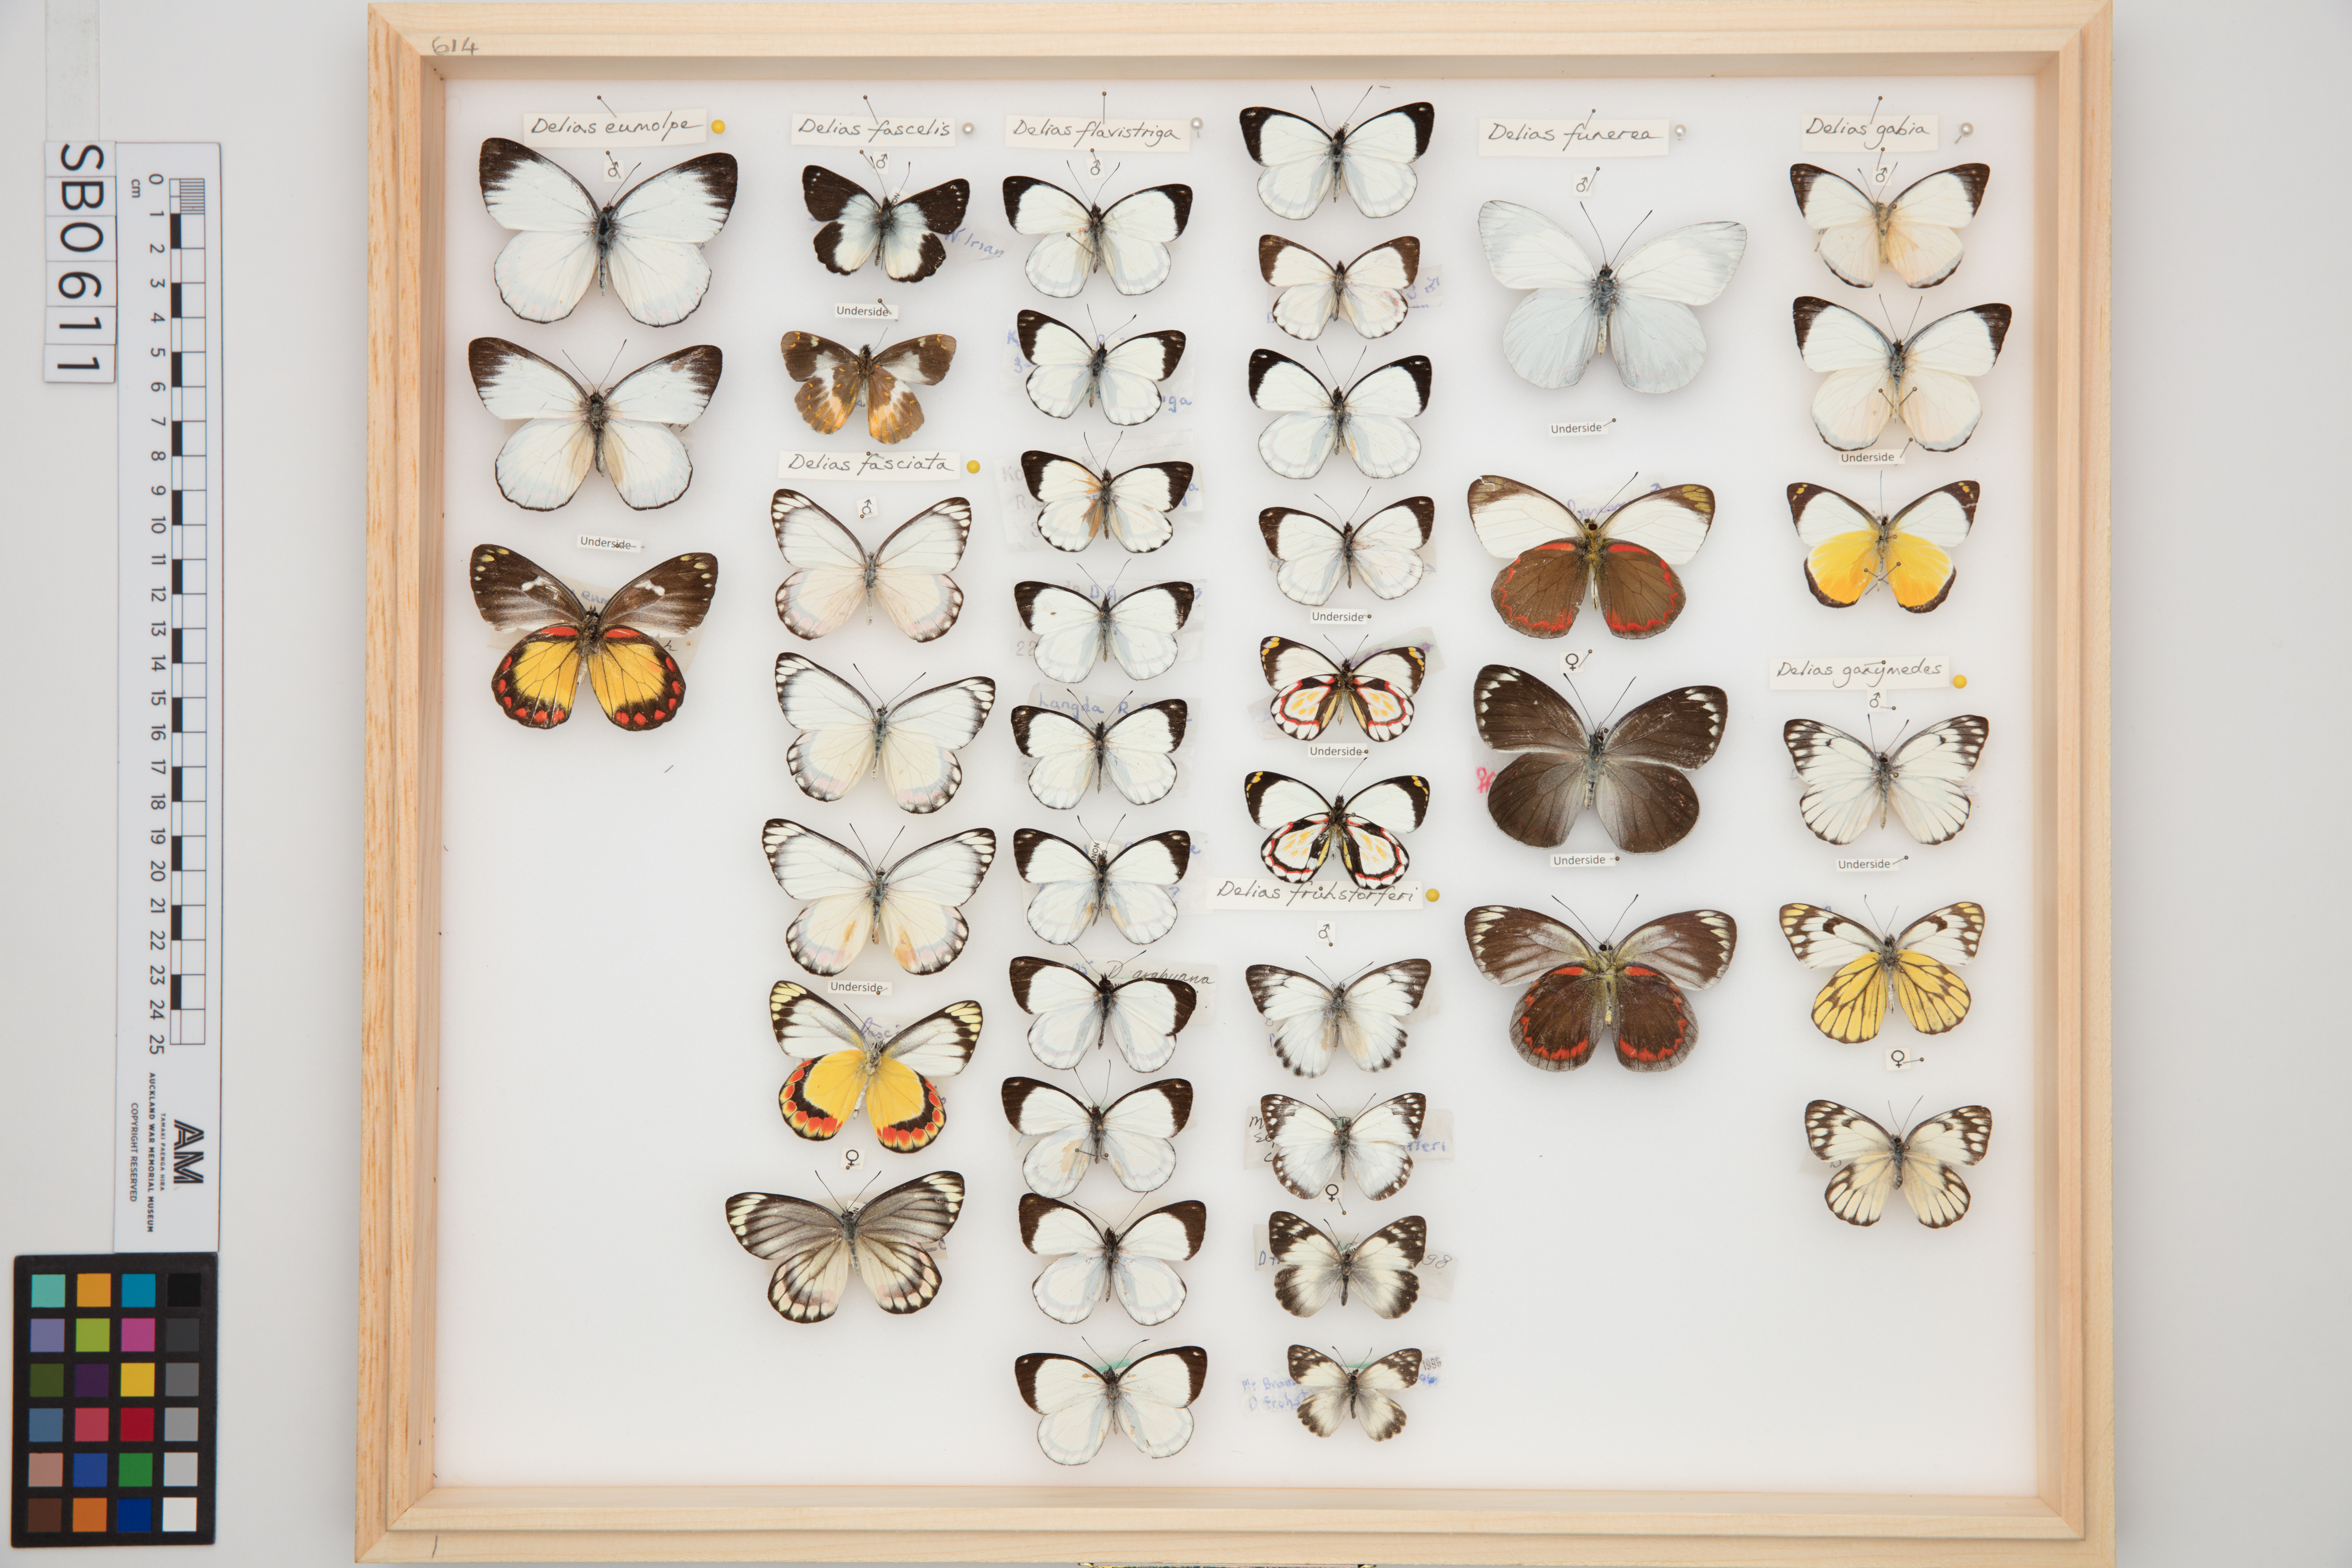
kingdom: Animalia
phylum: Arthropoda
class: Insecta
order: Lepidoptera
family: Pieridae
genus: Delias
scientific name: Delias fascelis
